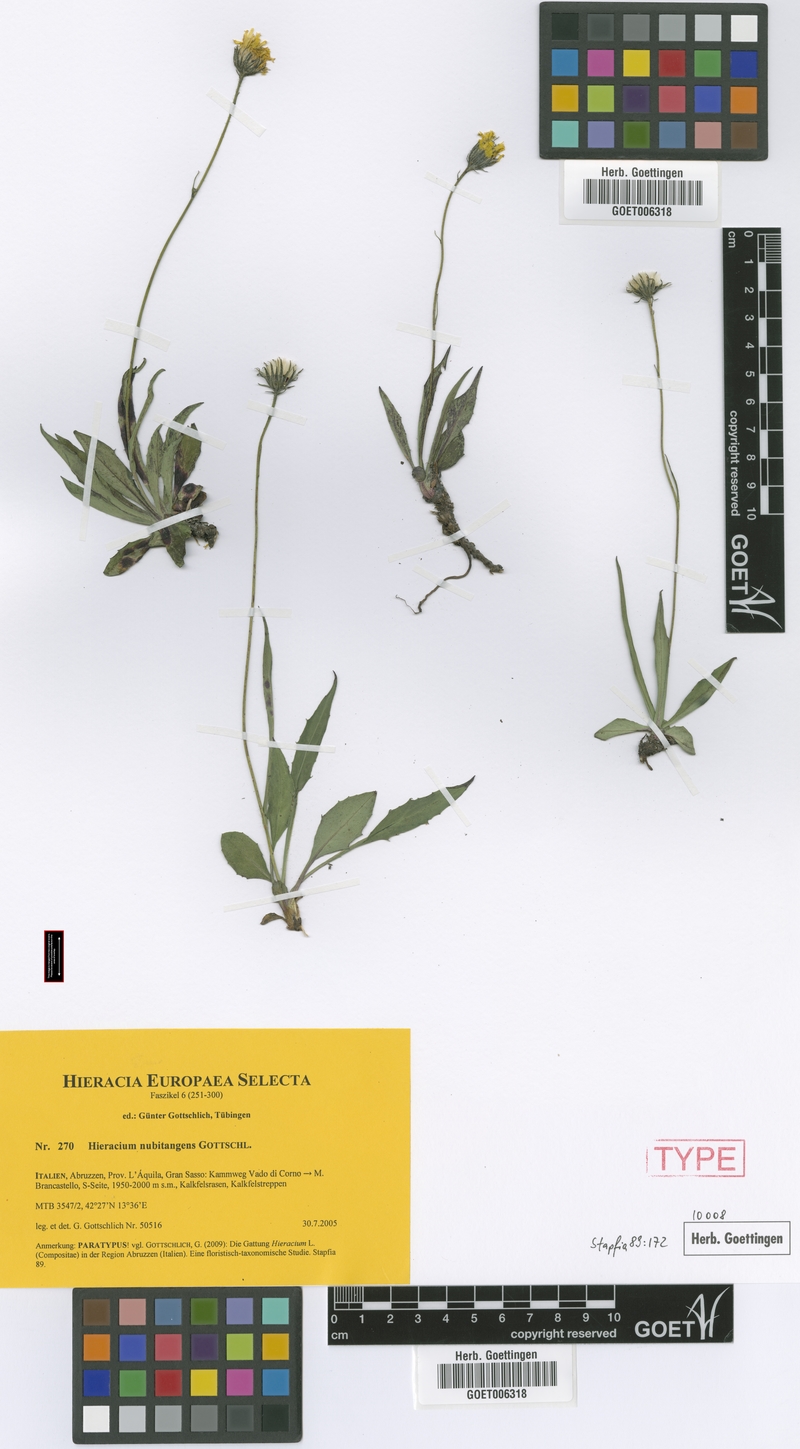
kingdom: Plantae
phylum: Tracheophyta
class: Magnoliopsida
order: Asterales
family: Asteraceae
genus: Hieracium
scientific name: Hieracium nubitangens
